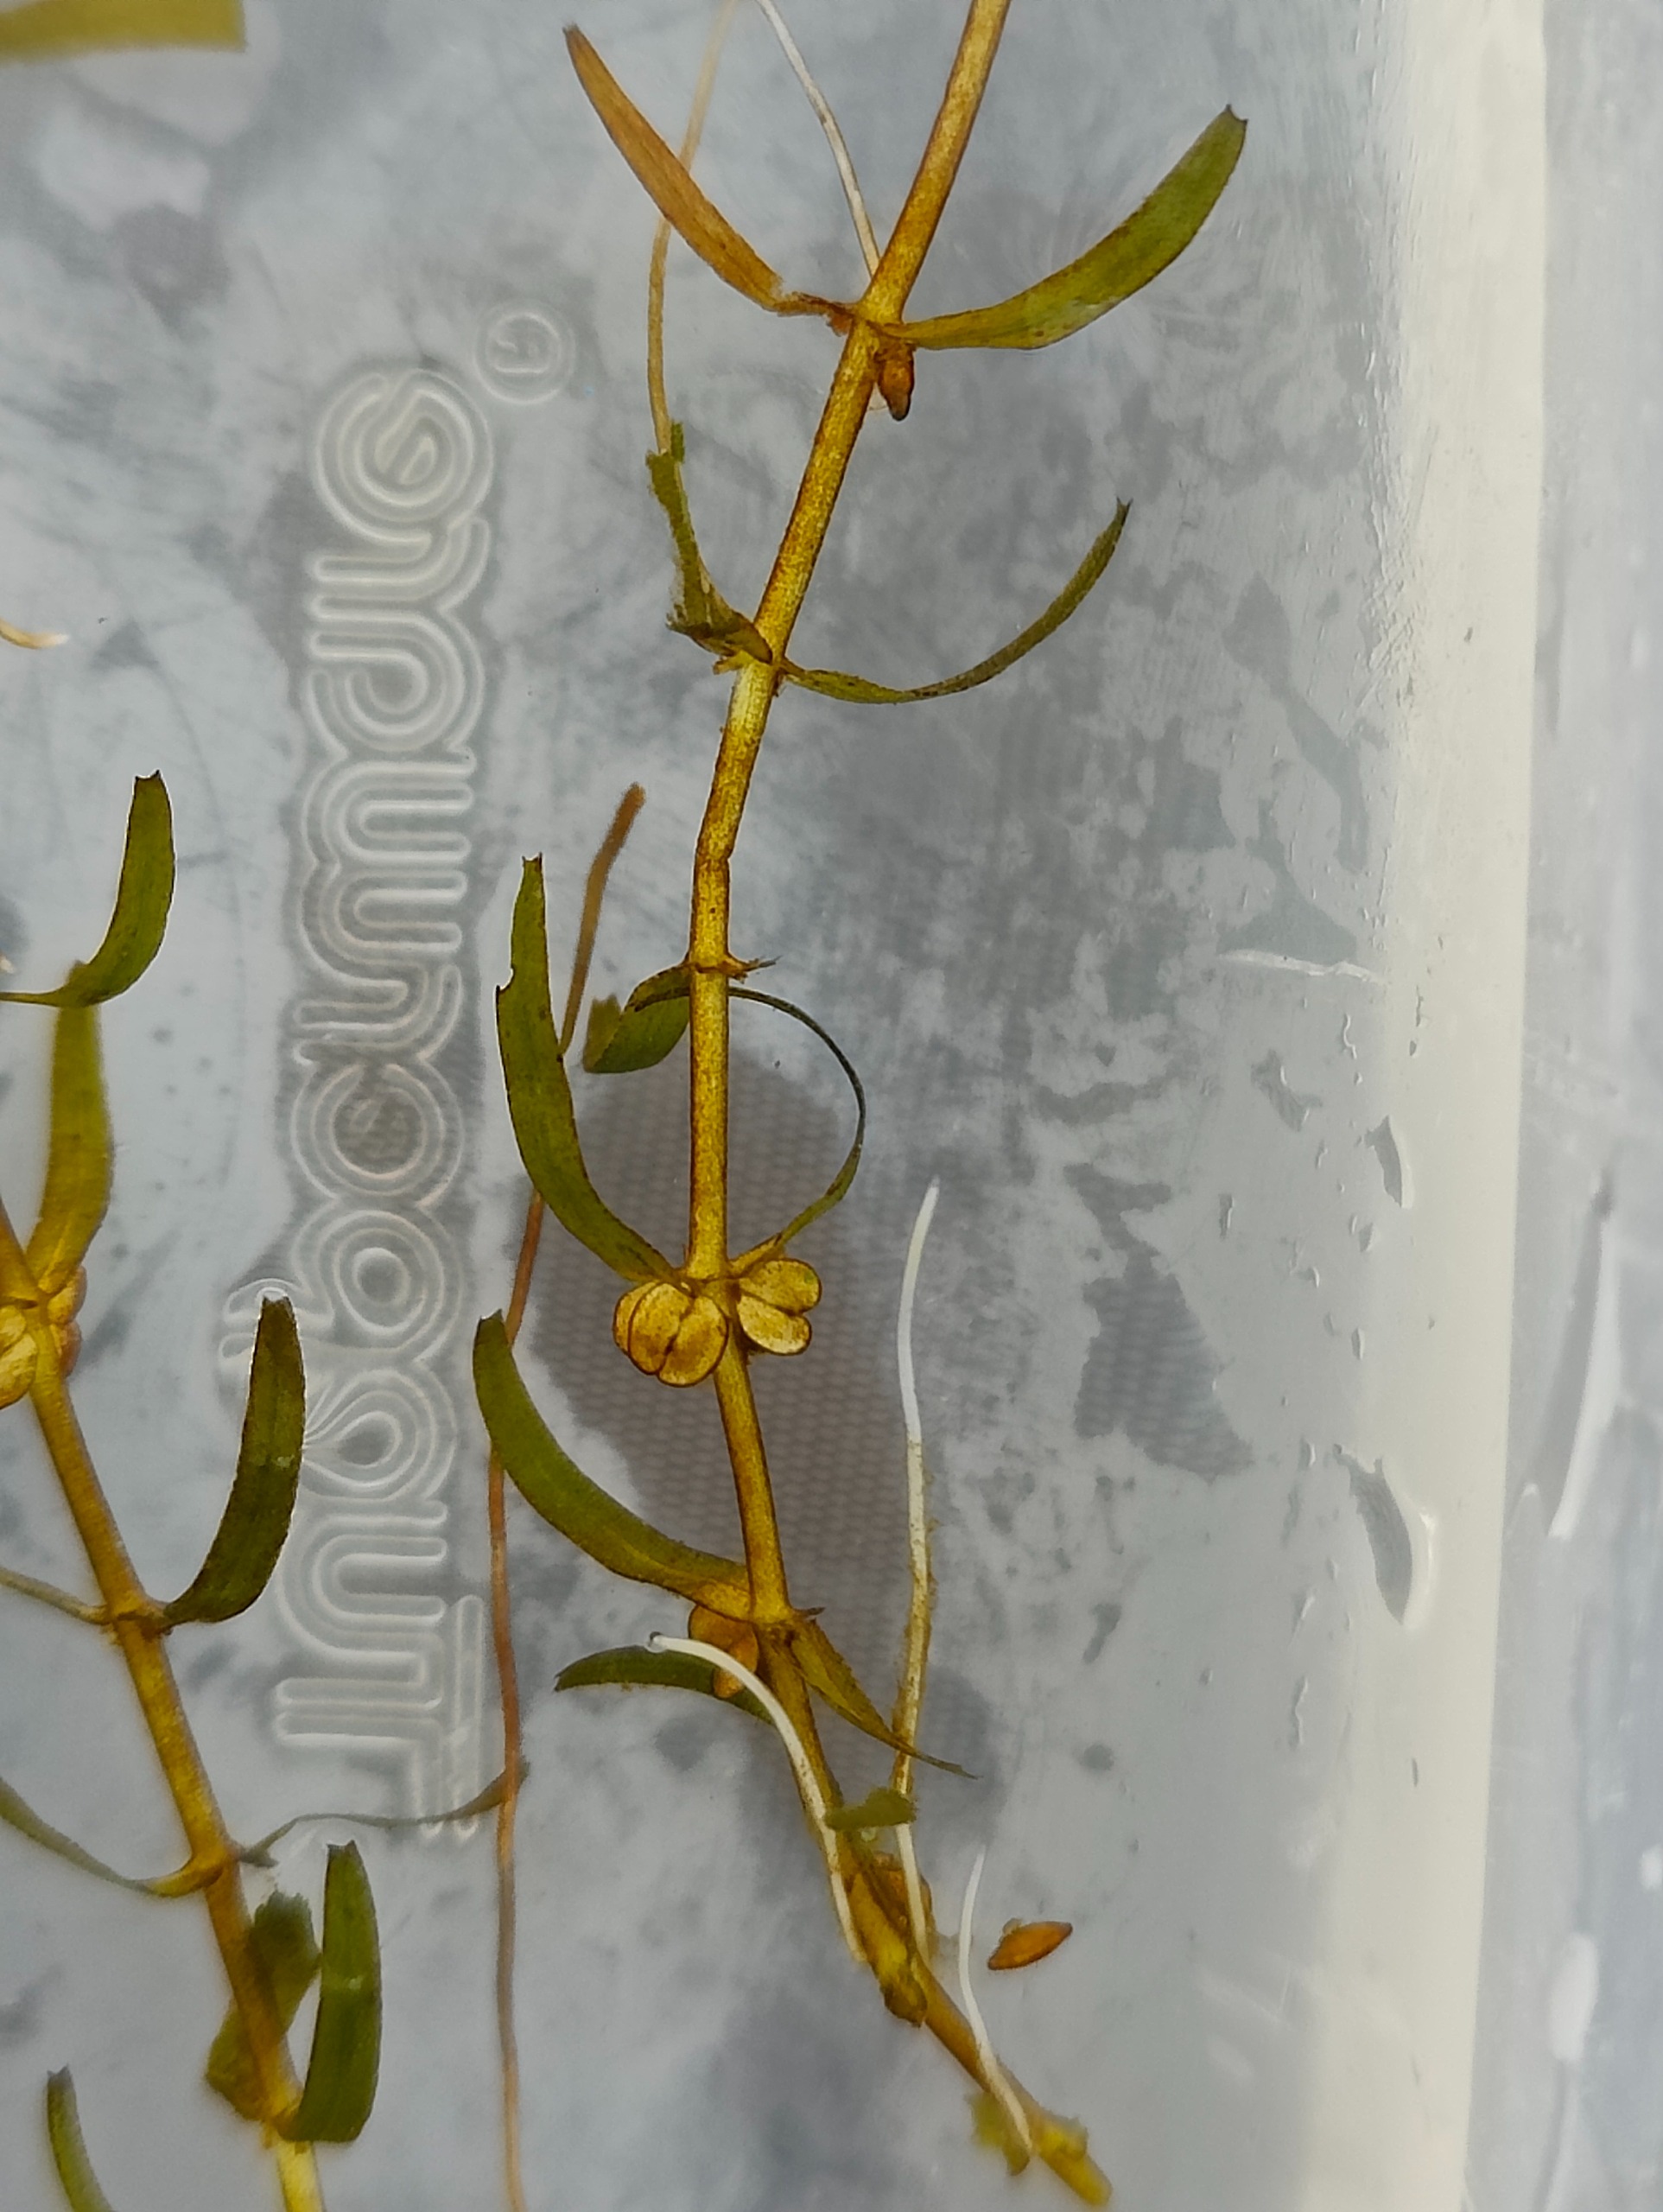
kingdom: Plantae
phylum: Tracheophyta
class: Magnoliopsida
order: Lamiales
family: Plantaginaceae
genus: Callitriche
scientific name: Callitriche hermaphroditica
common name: Høst-vandstjerne
